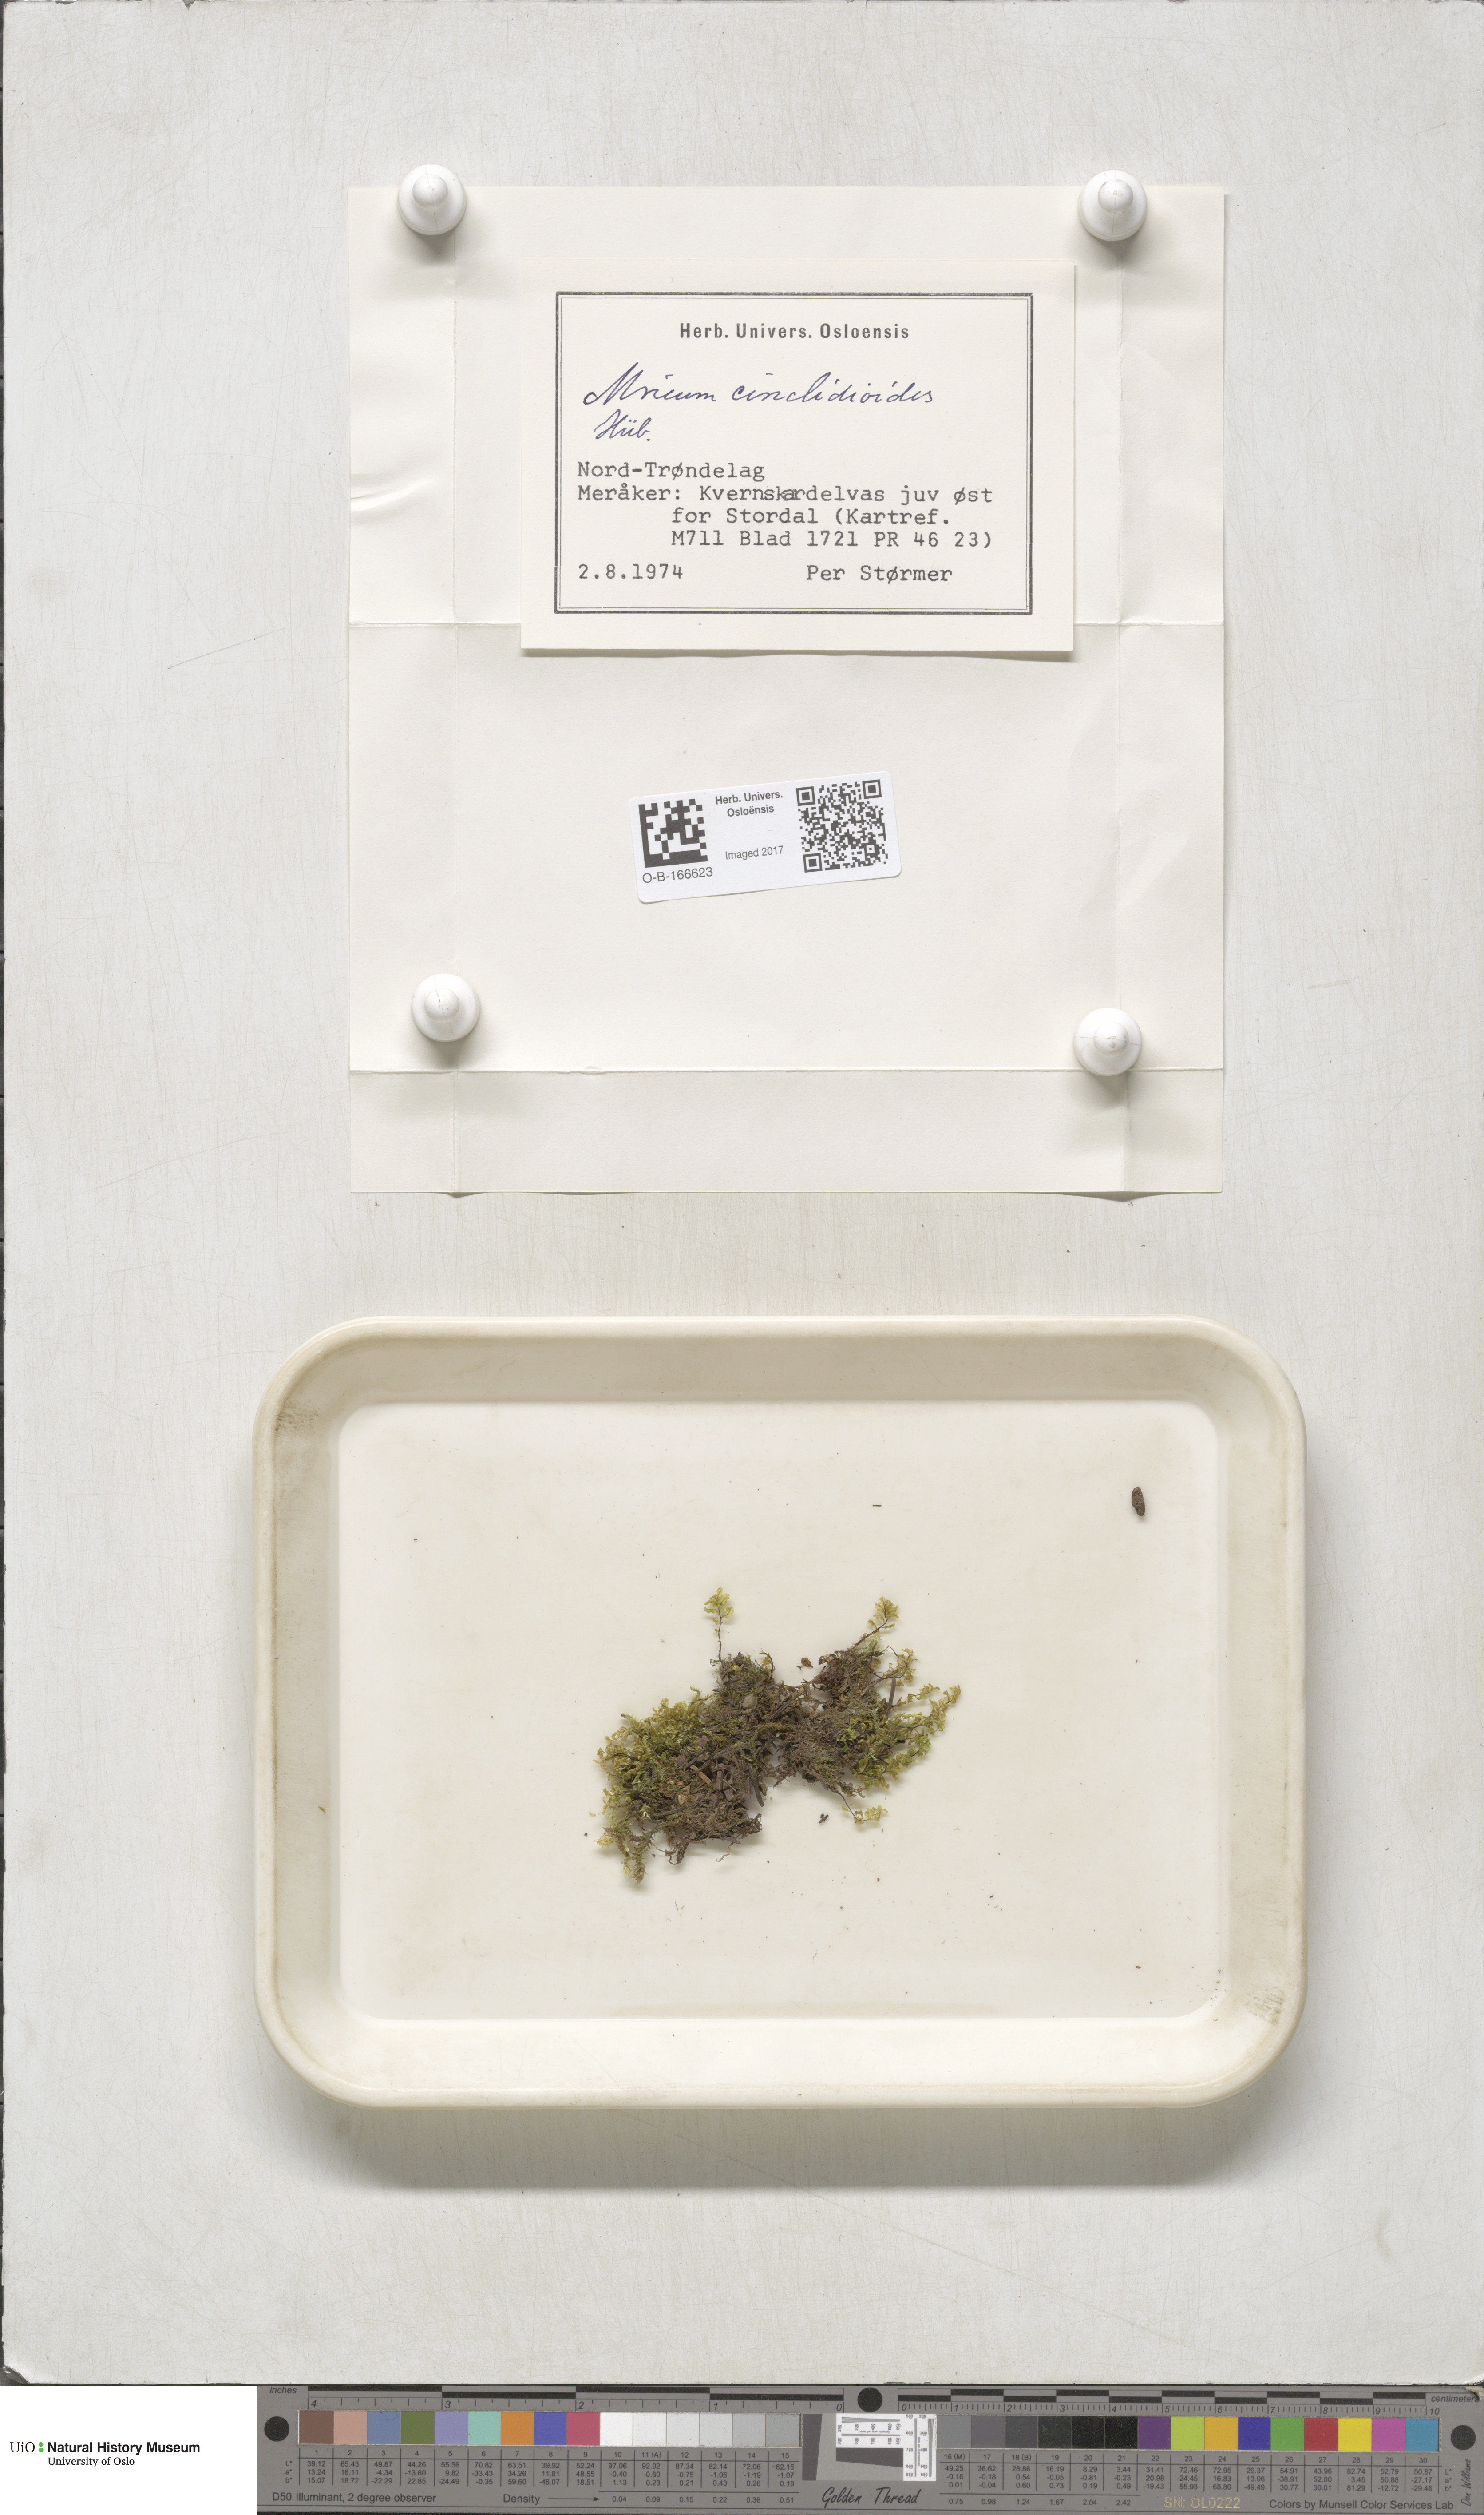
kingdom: Plantae
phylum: Bryophyta
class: Bryopsida
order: Bryales
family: Mniaceae
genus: Pseudobryum
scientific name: Pseudobryum cinclidioides
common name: River thyme moss
